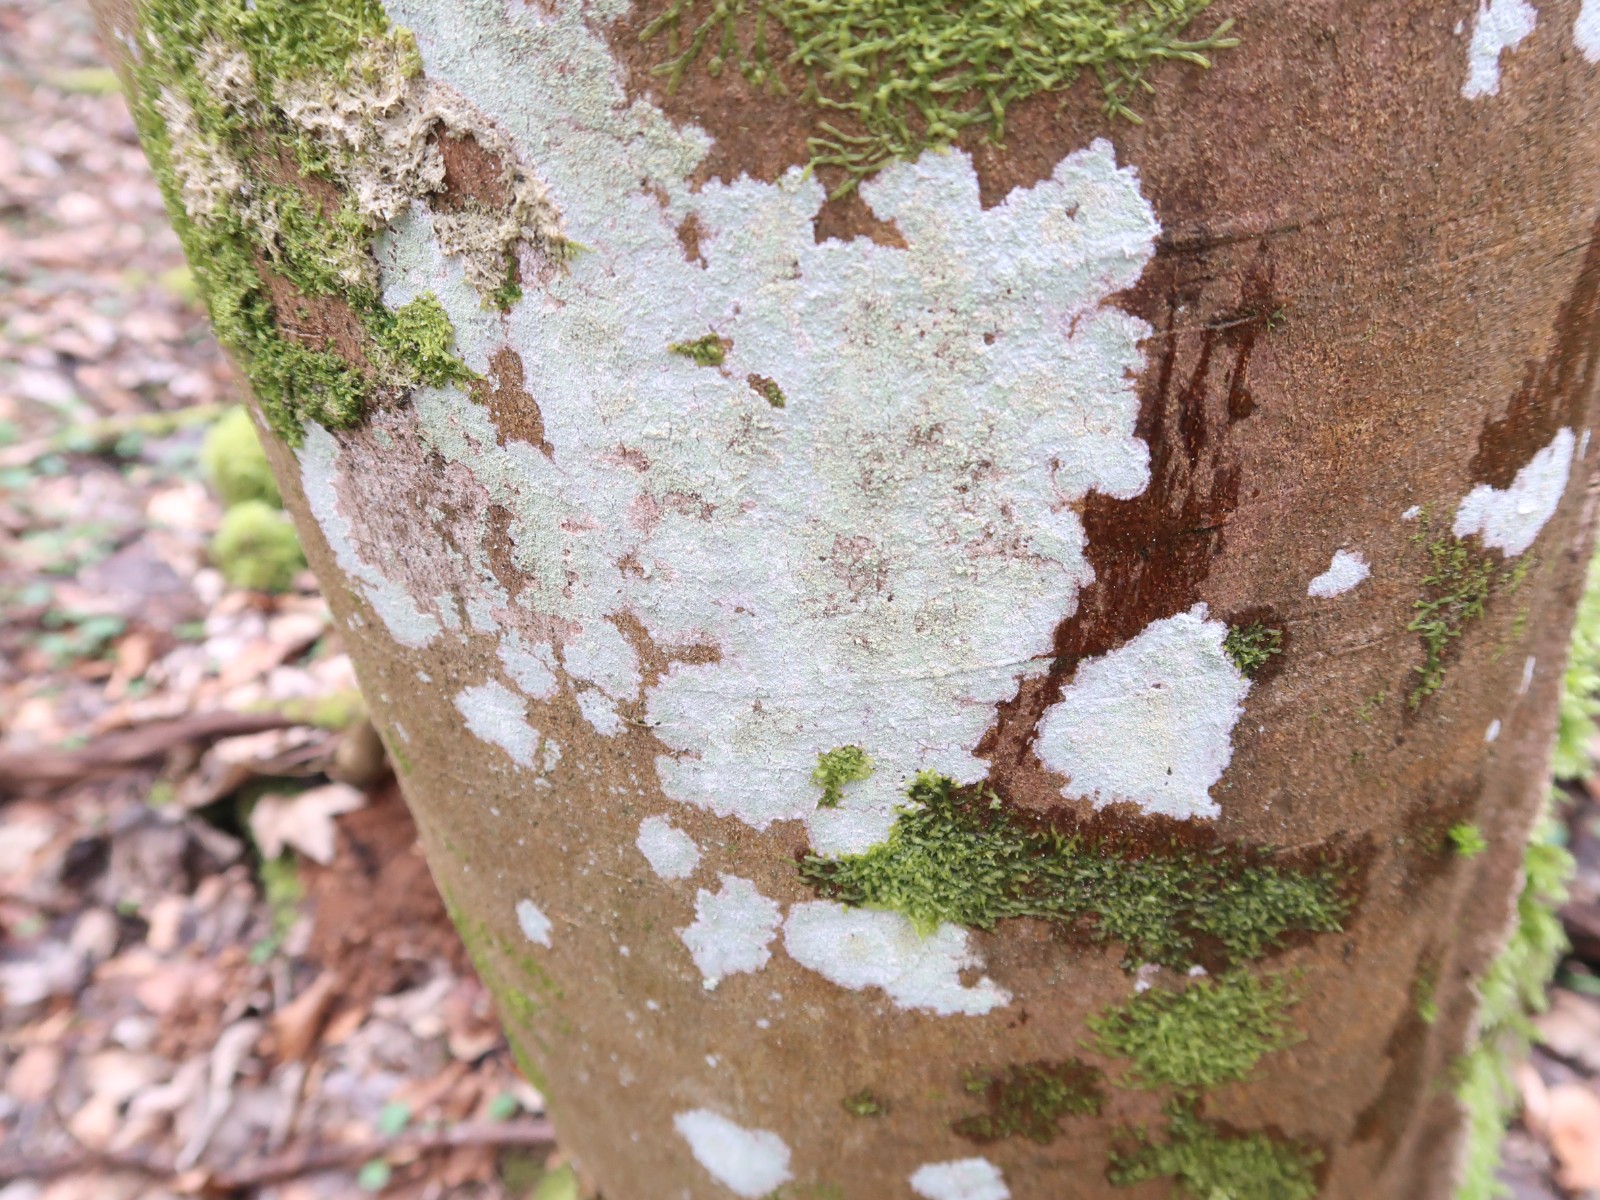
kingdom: Fungi
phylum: Ascomycota
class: Lecanoromycetes
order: Ostropales
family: Phlyctidaceae
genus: Phlyctis
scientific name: Phlyctis argena
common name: almindelig sølvlav
